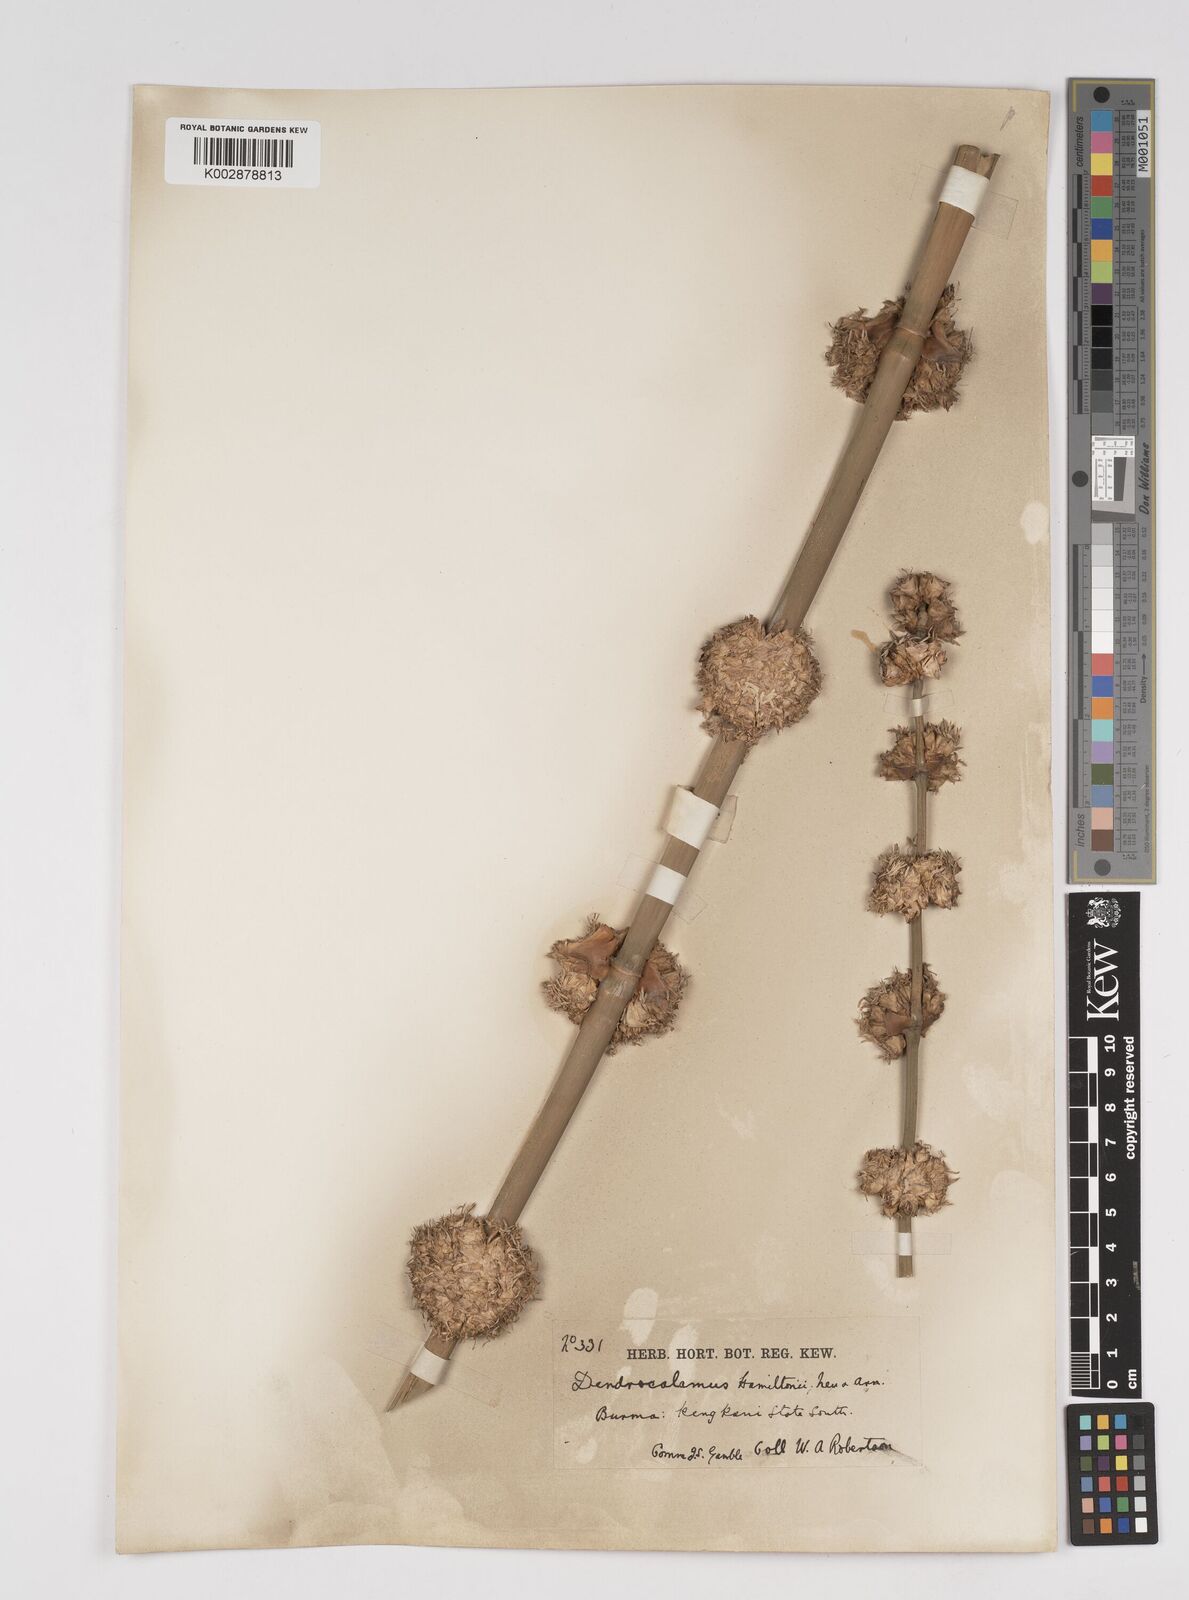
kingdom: Plantae
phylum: Tracheophyta
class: Liliopsida
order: Poales
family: Poaceae
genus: Dendrocalamus
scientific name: Dendrocalamus hamiltonii
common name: Tama bamboo
